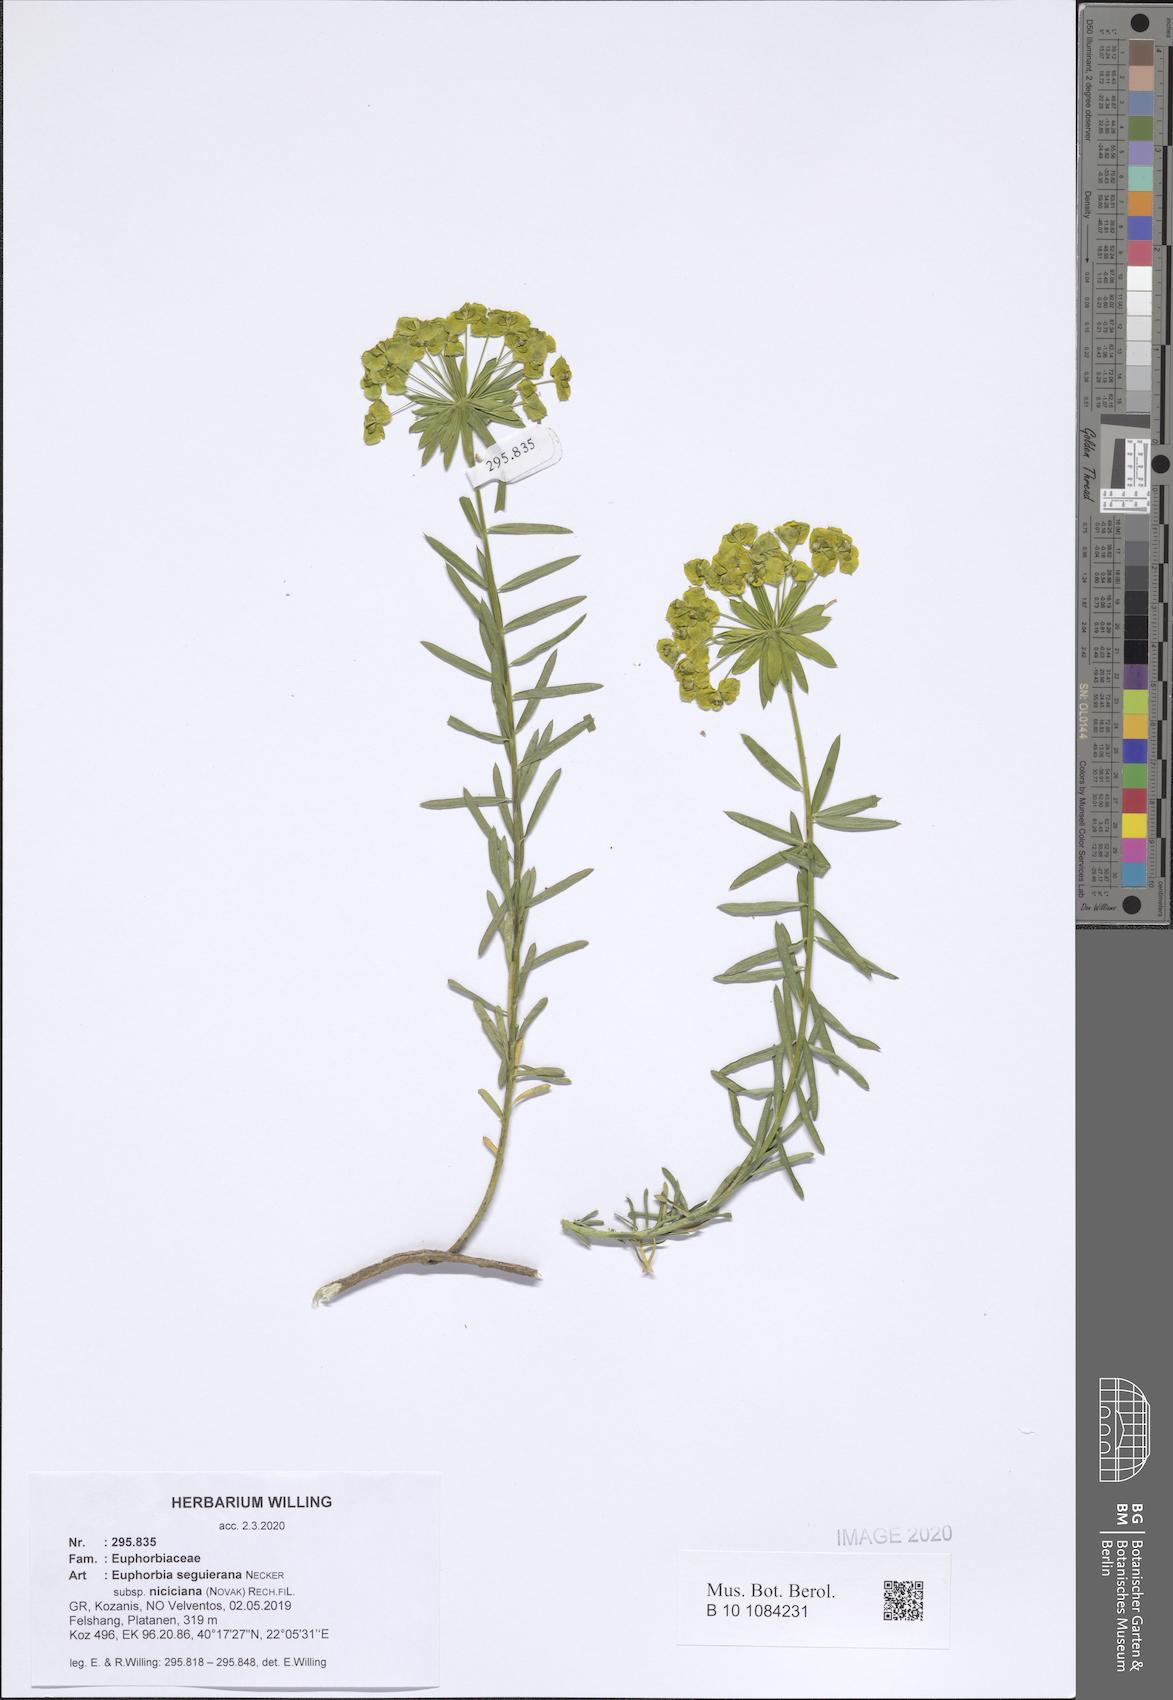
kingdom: Plantae
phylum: Tracheophyta
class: Magnoliopsida
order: Malpighiales
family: Euphorbiaceae
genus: Euphorbia
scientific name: Euphorbia seguieriana
